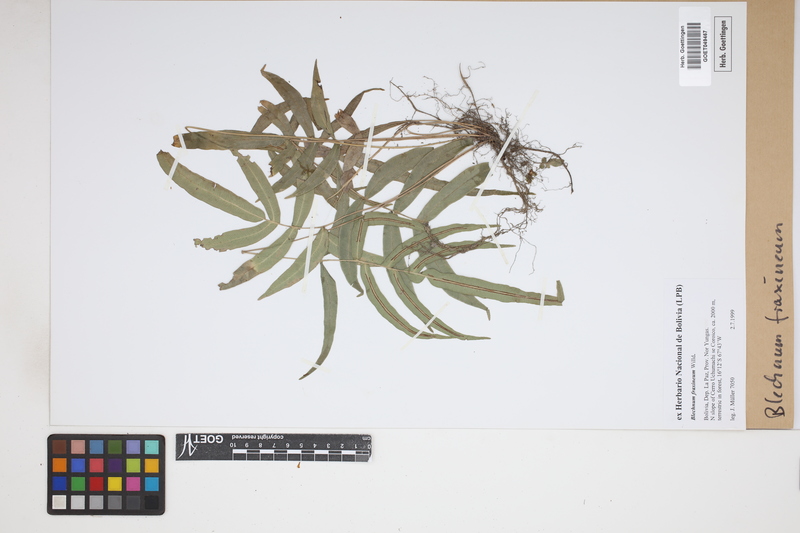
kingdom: Plantae
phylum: Tracheophyta
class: Polypodiopsida
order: Polypodiales
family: Blechnaceae
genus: Blechnum
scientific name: Blechnum gracile
